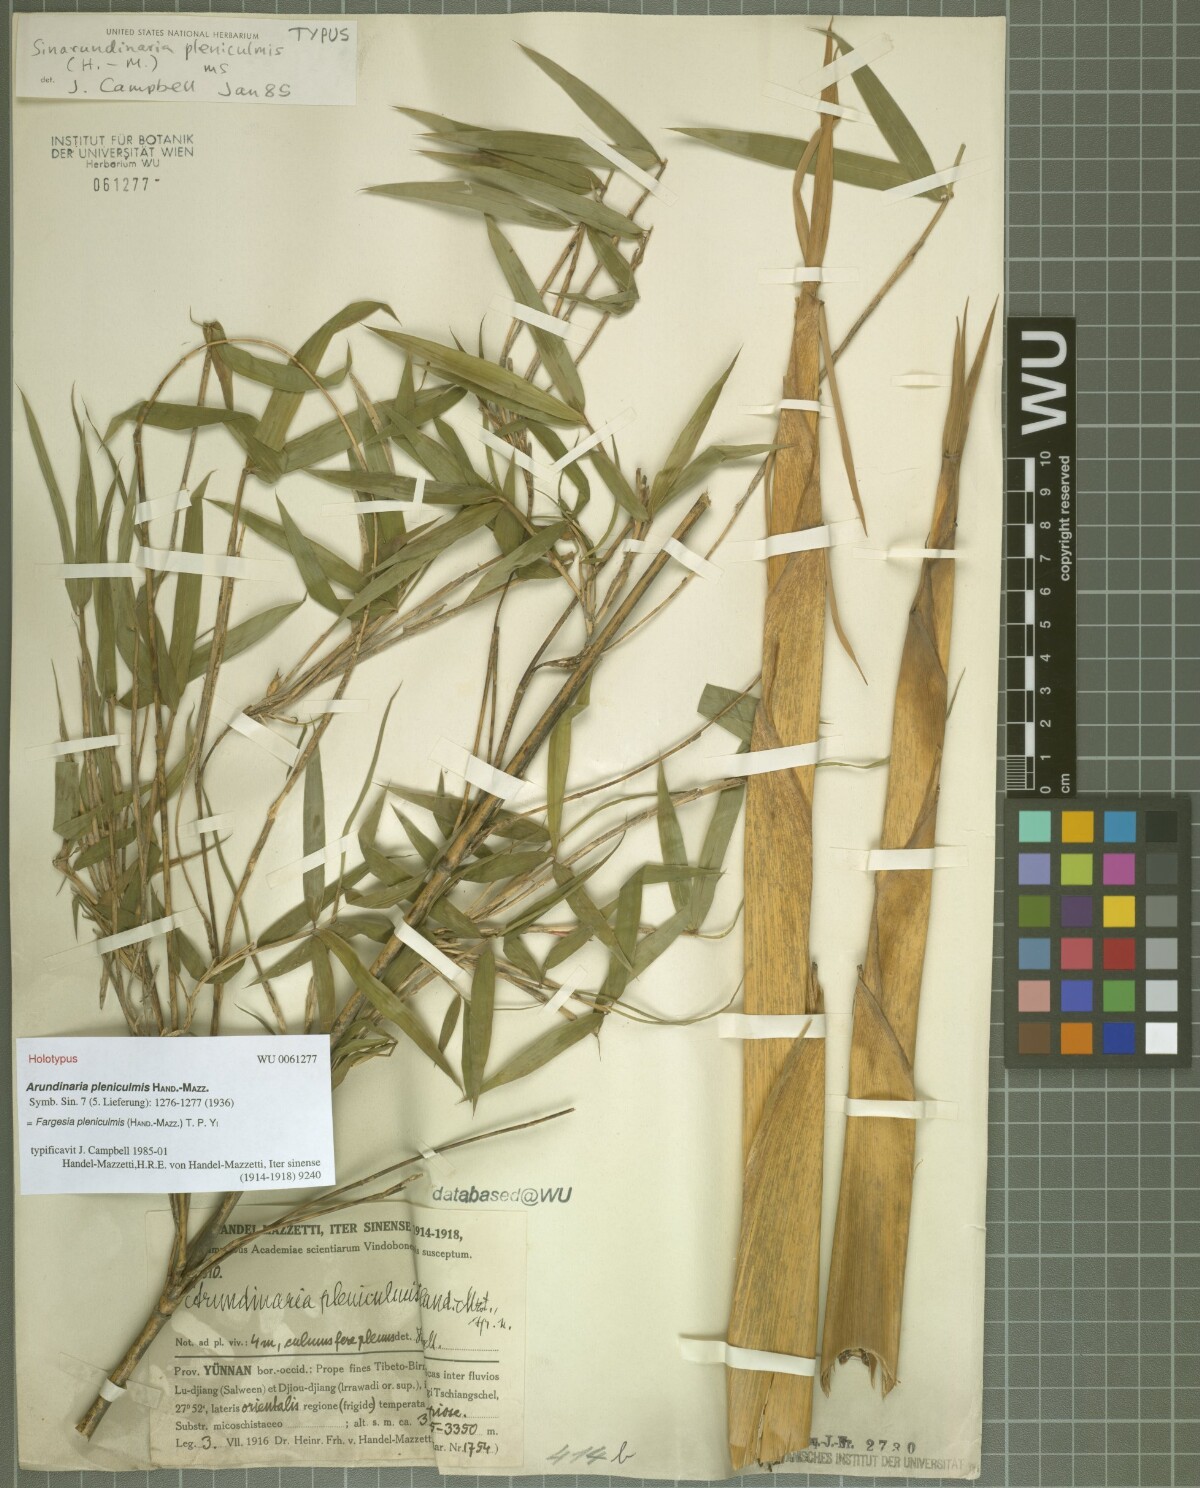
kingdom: Plantae
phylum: Tracheophyta
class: Liliopsida
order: Poales
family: Poaceae
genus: Borinda
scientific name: Borinda pleniculmis
